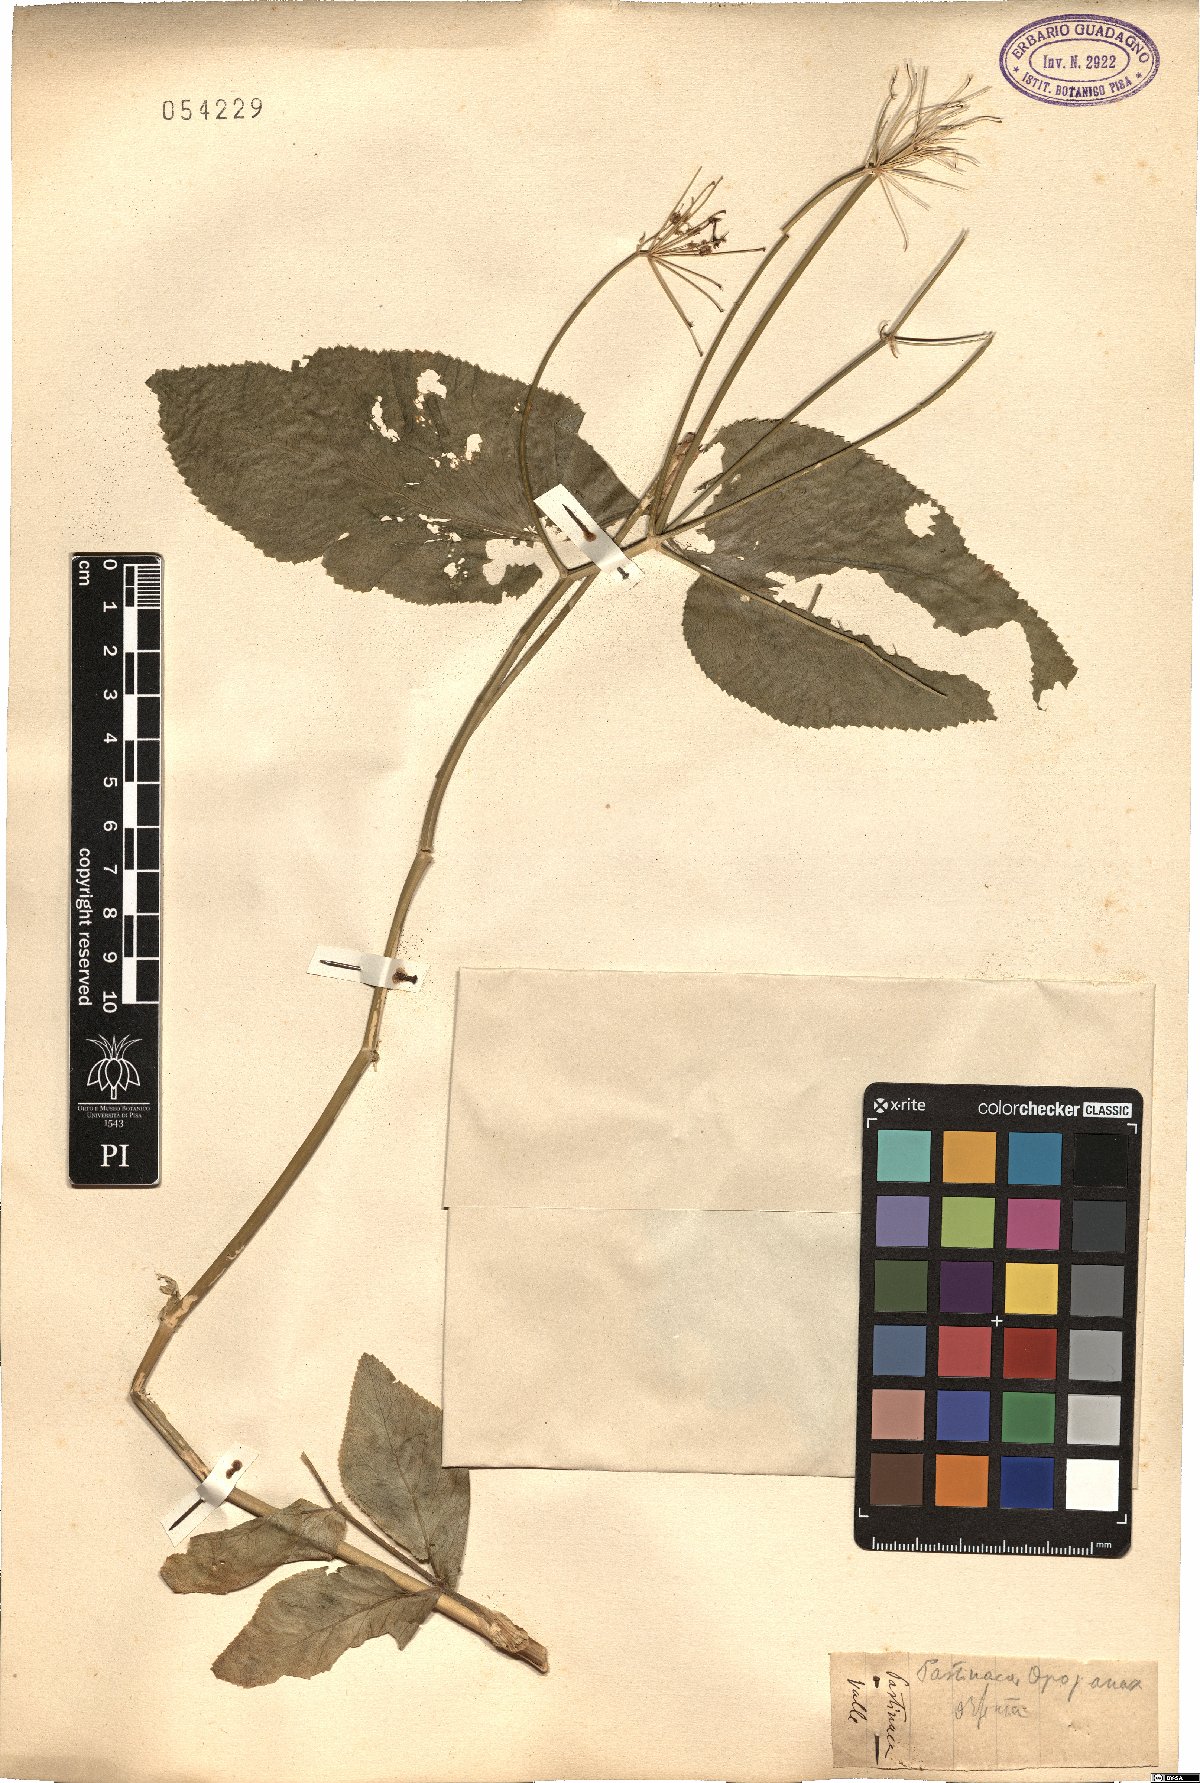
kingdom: Plantae
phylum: Tracheophyta
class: Magnoliopsida
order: Apiales
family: Apiaceae
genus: Opopanax
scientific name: Opopanax chironium
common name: Hercules-all-heal
